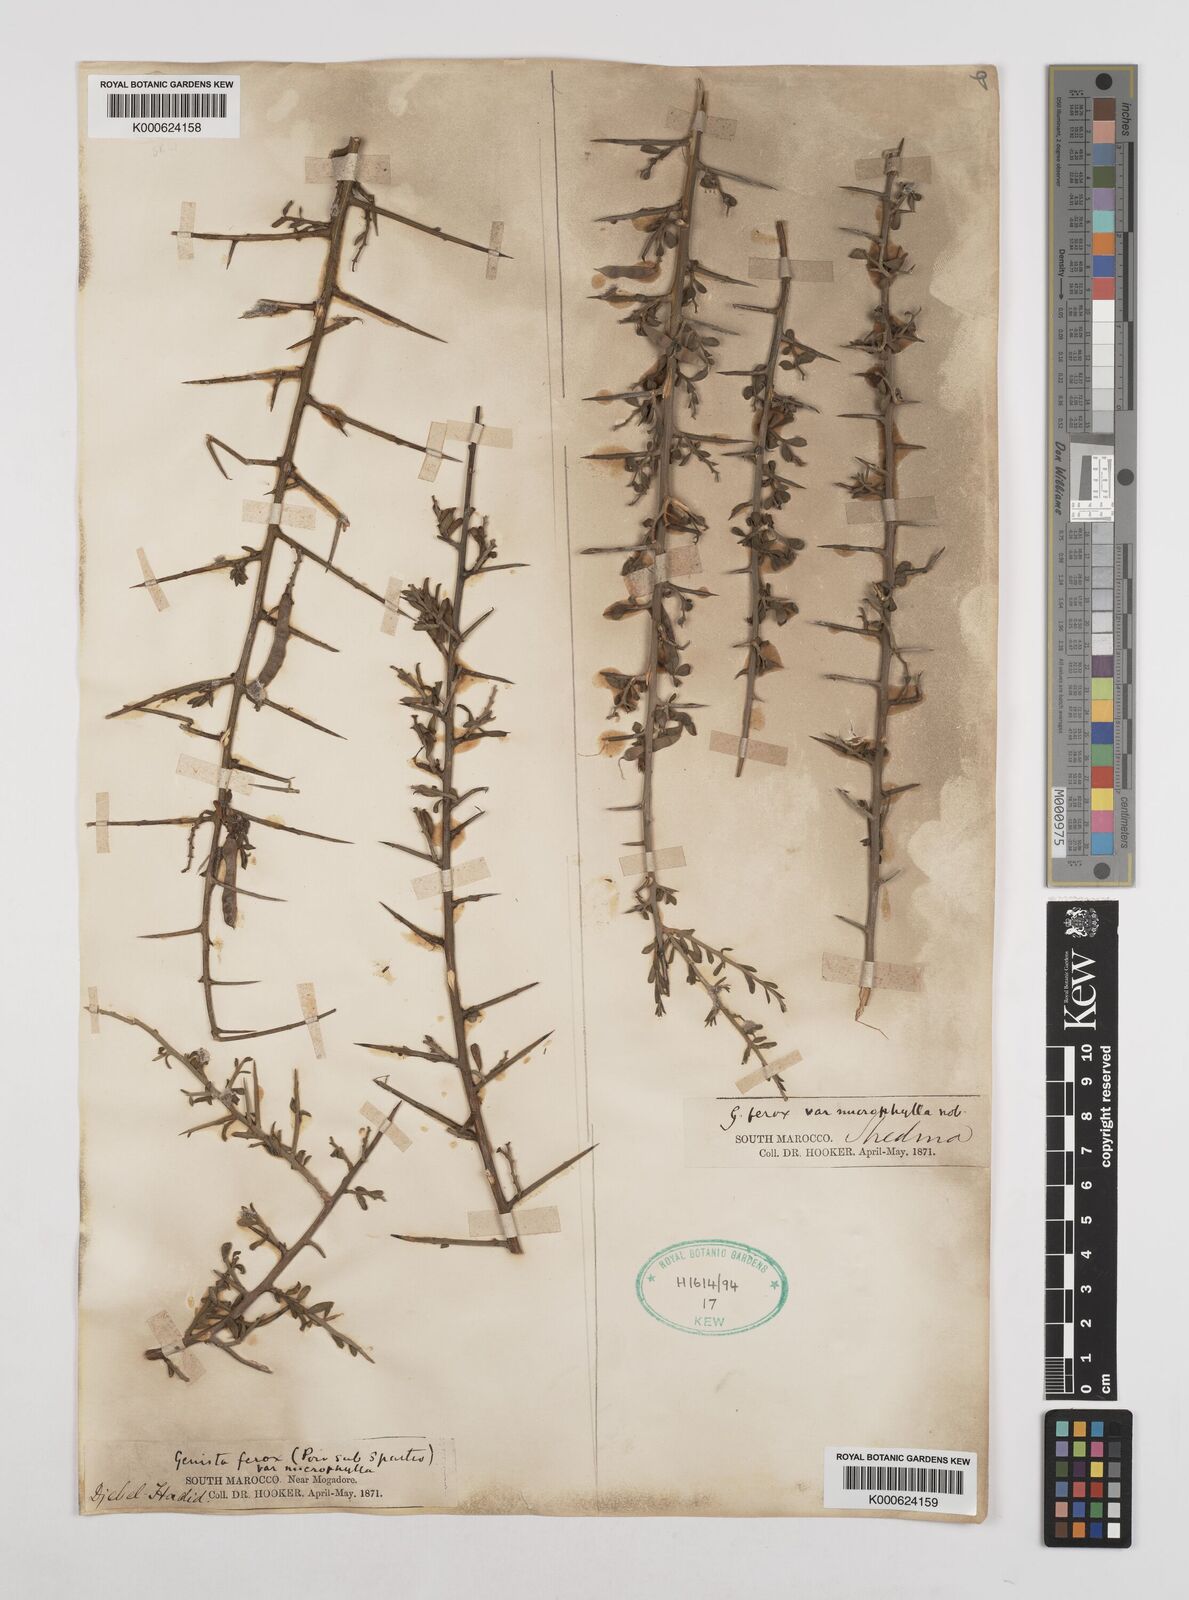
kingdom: Plantae
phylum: Tracheophyta
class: Magnoliopsida
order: Fabales
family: Fabaceae
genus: Genista
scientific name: Genista
